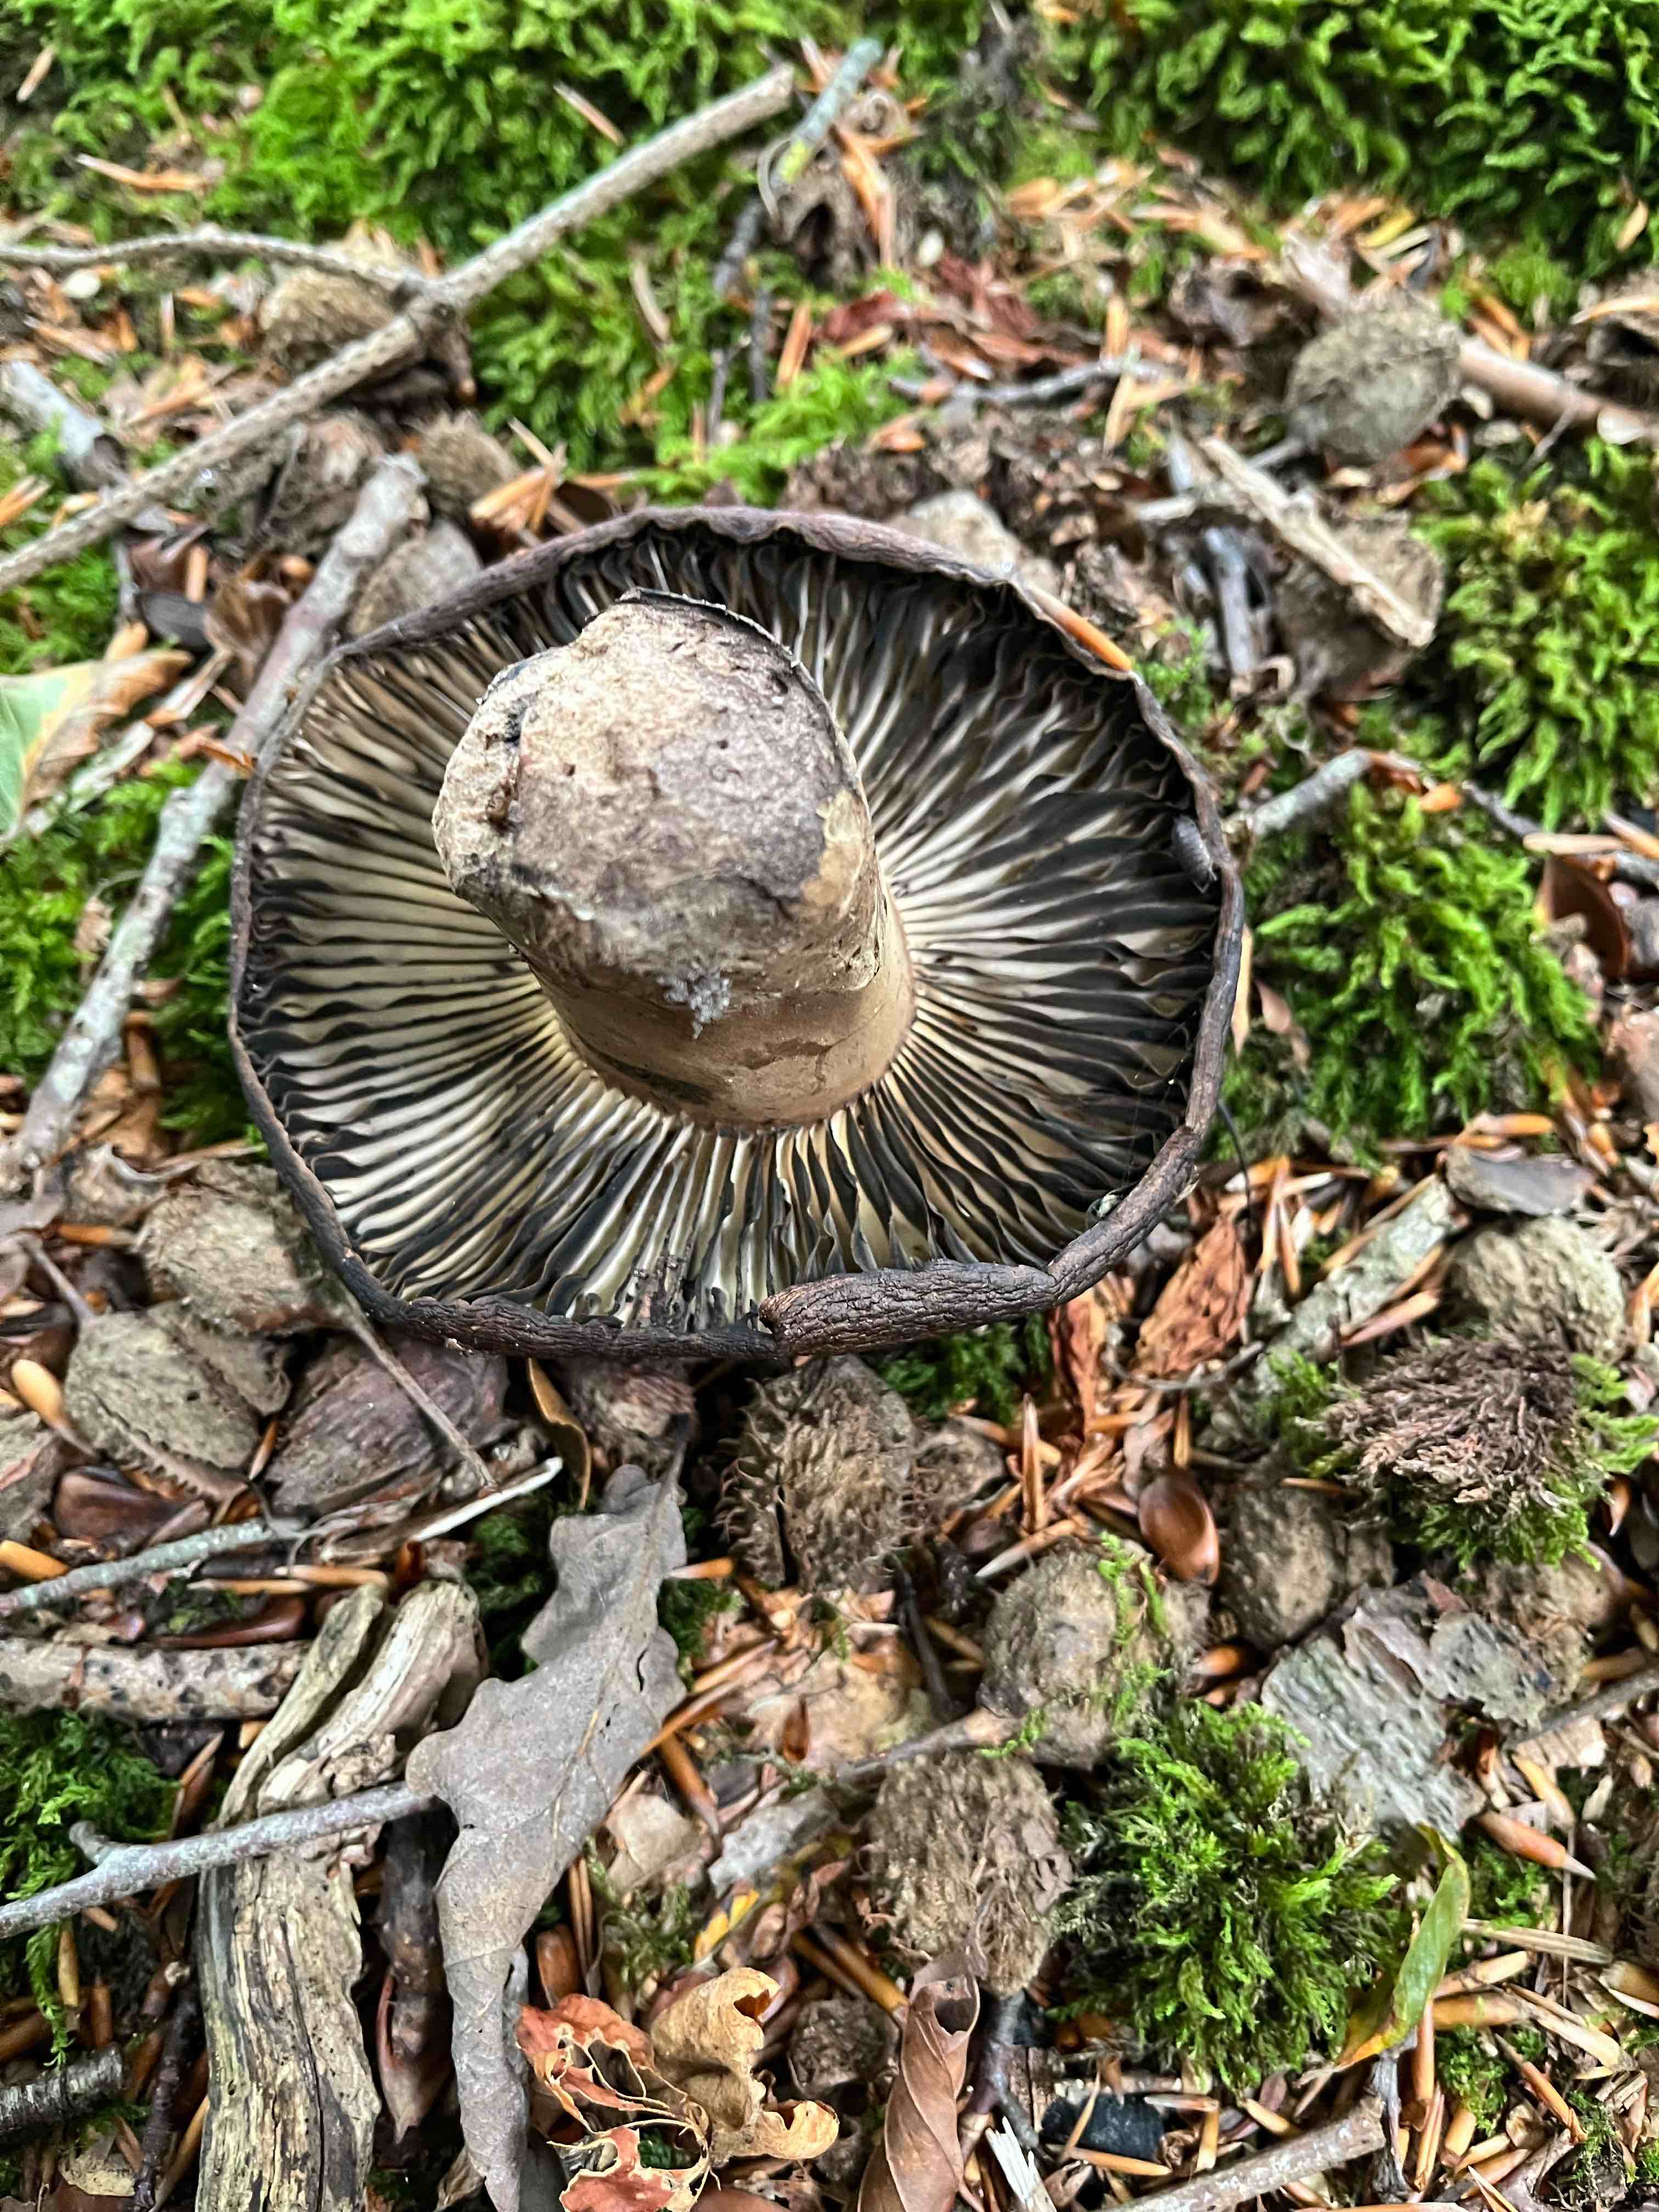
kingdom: Fungi
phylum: Basidiomycota
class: Agaricomycetes
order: Russulales
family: Russulaceae
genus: Russula
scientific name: Russula adusta
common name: sværtende skørhat
